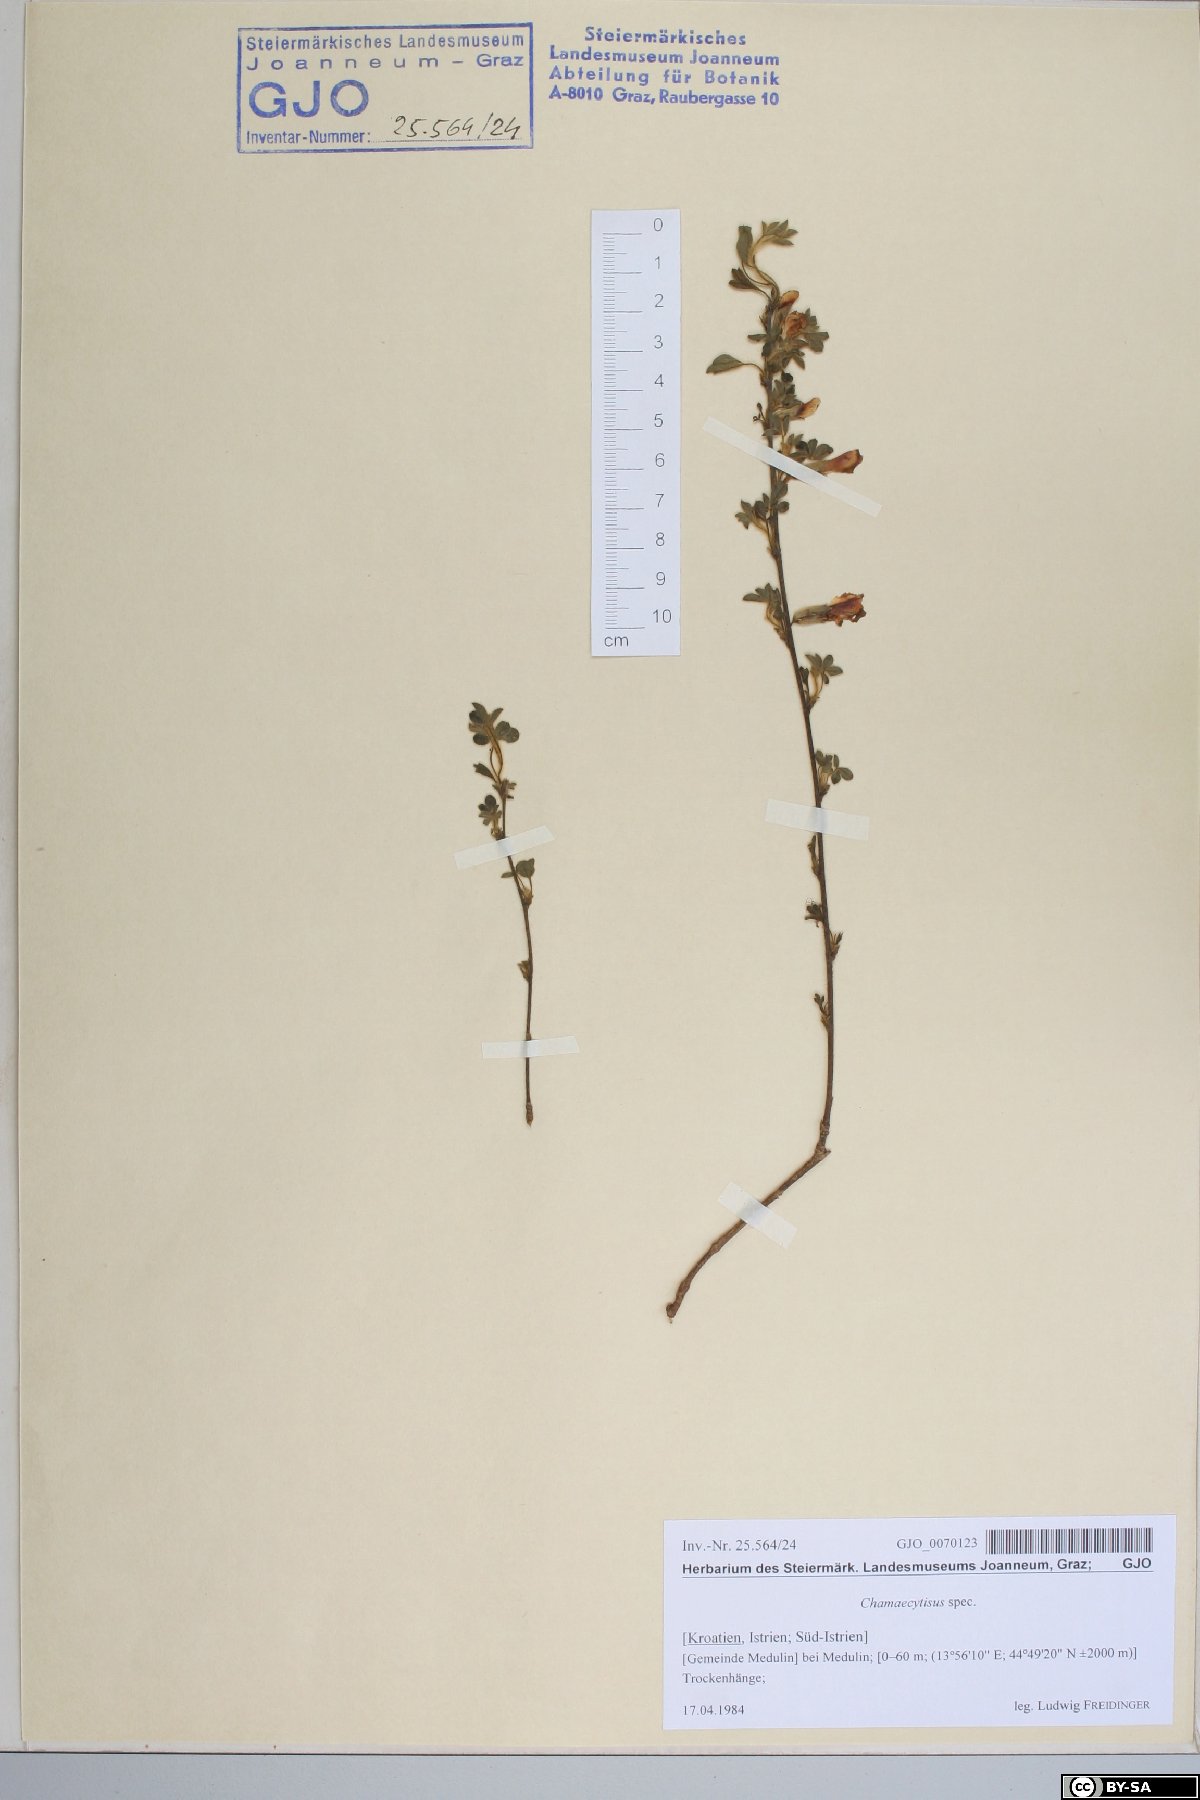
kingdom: Plantae
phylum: Tracheophyta
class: Magnoliopsida
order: Fabales
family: Fabaceae
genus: Chamaecytisus
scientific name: Chamaecytisus
